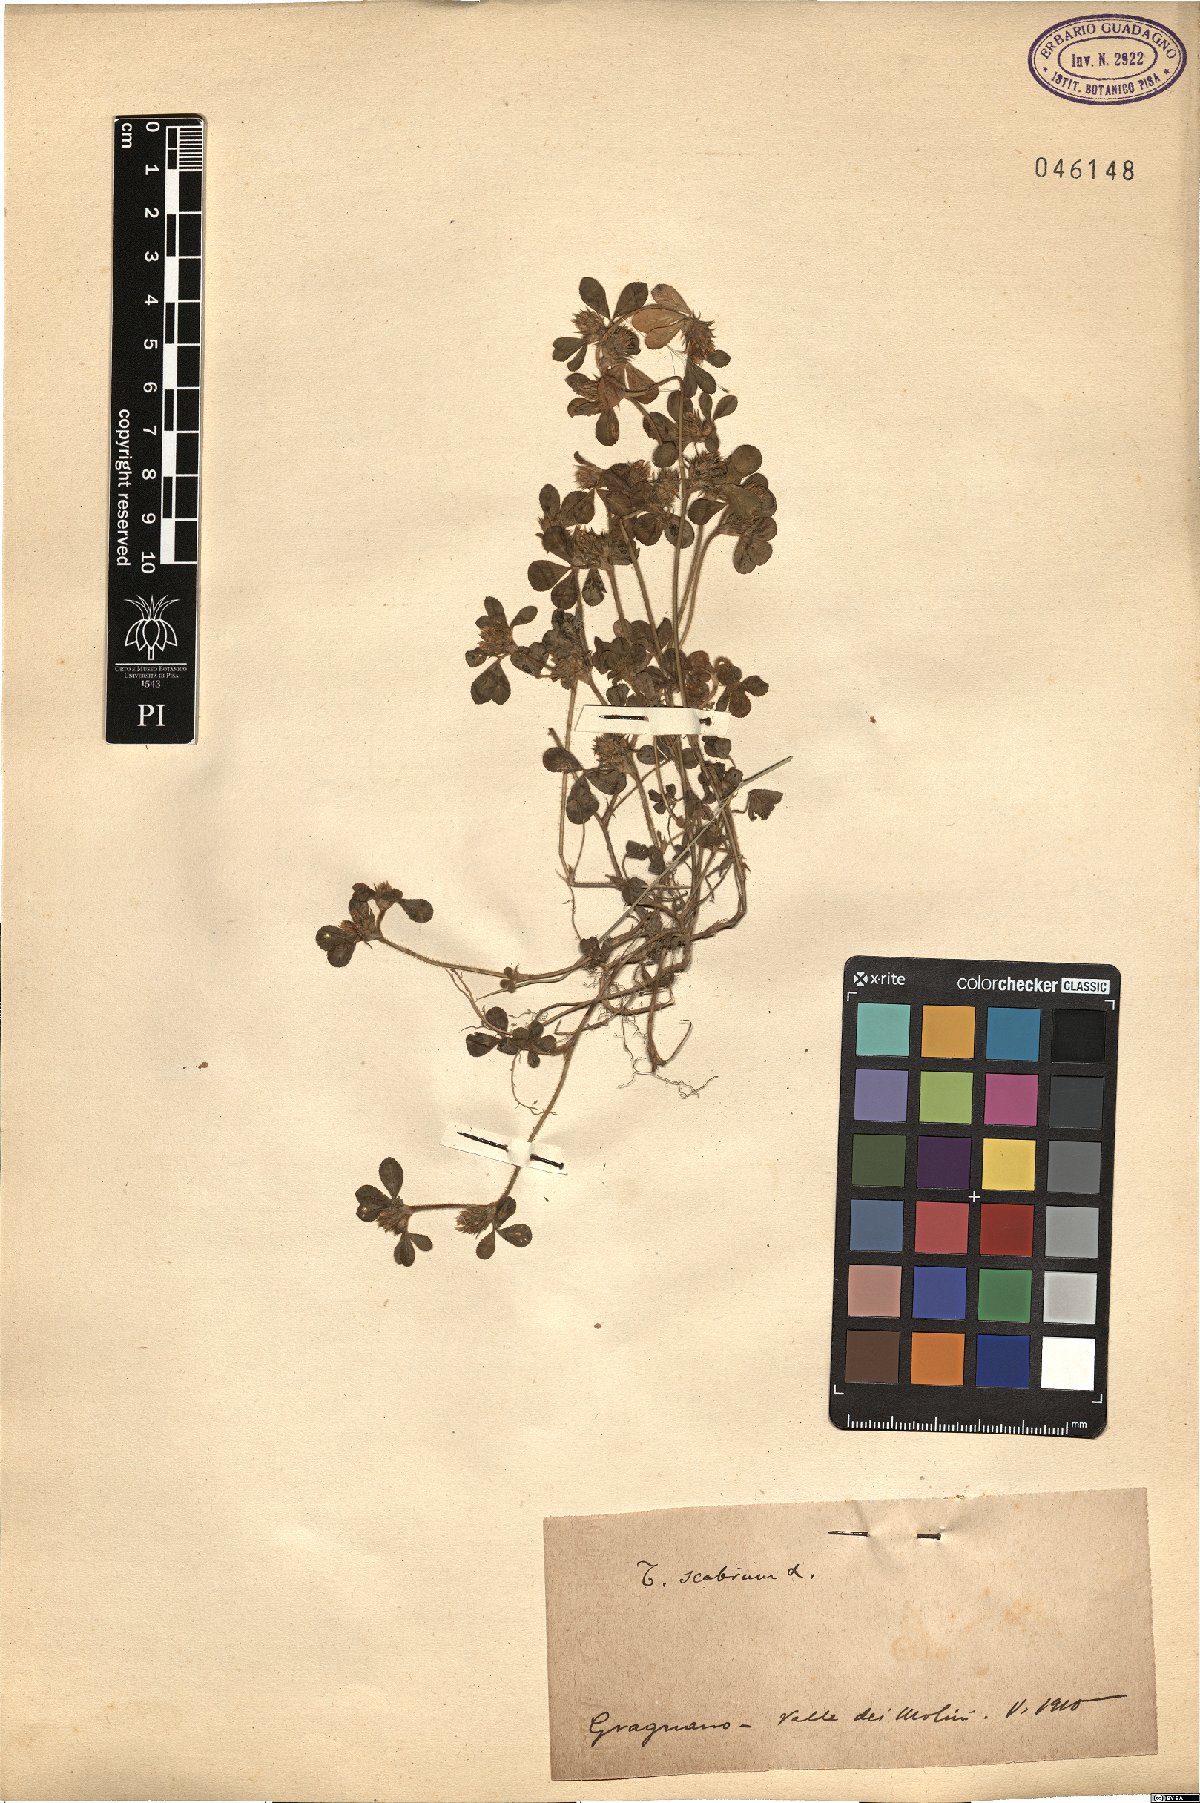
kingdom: Plantae
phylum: Tracheophyta
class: Magnoliopsida
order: Fabales
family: Fabaceae
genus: Trifolium
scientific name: Trifolium scabrum
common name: Rough clover
